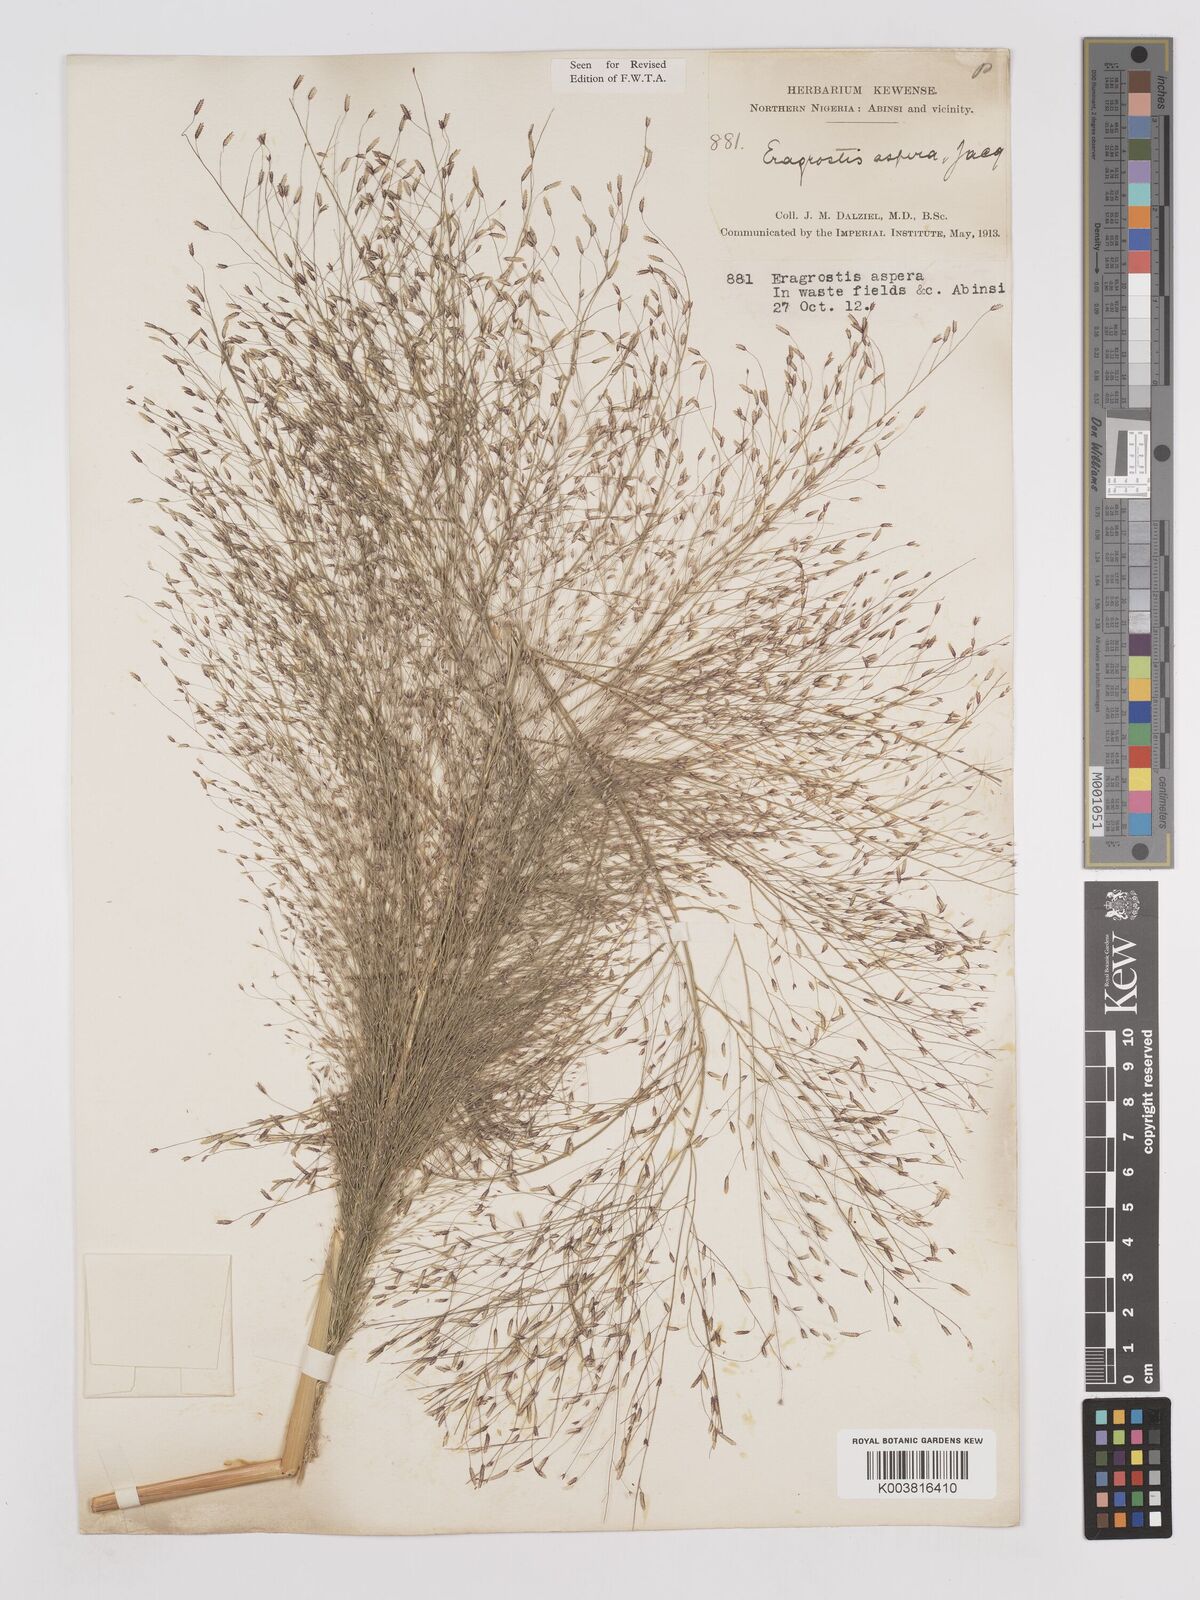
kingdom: Plantae
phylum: Tracheophyta
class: Liliopsida
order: Poales
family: Poaceae
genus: Eragrostis
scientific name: Eragrostis aspera
